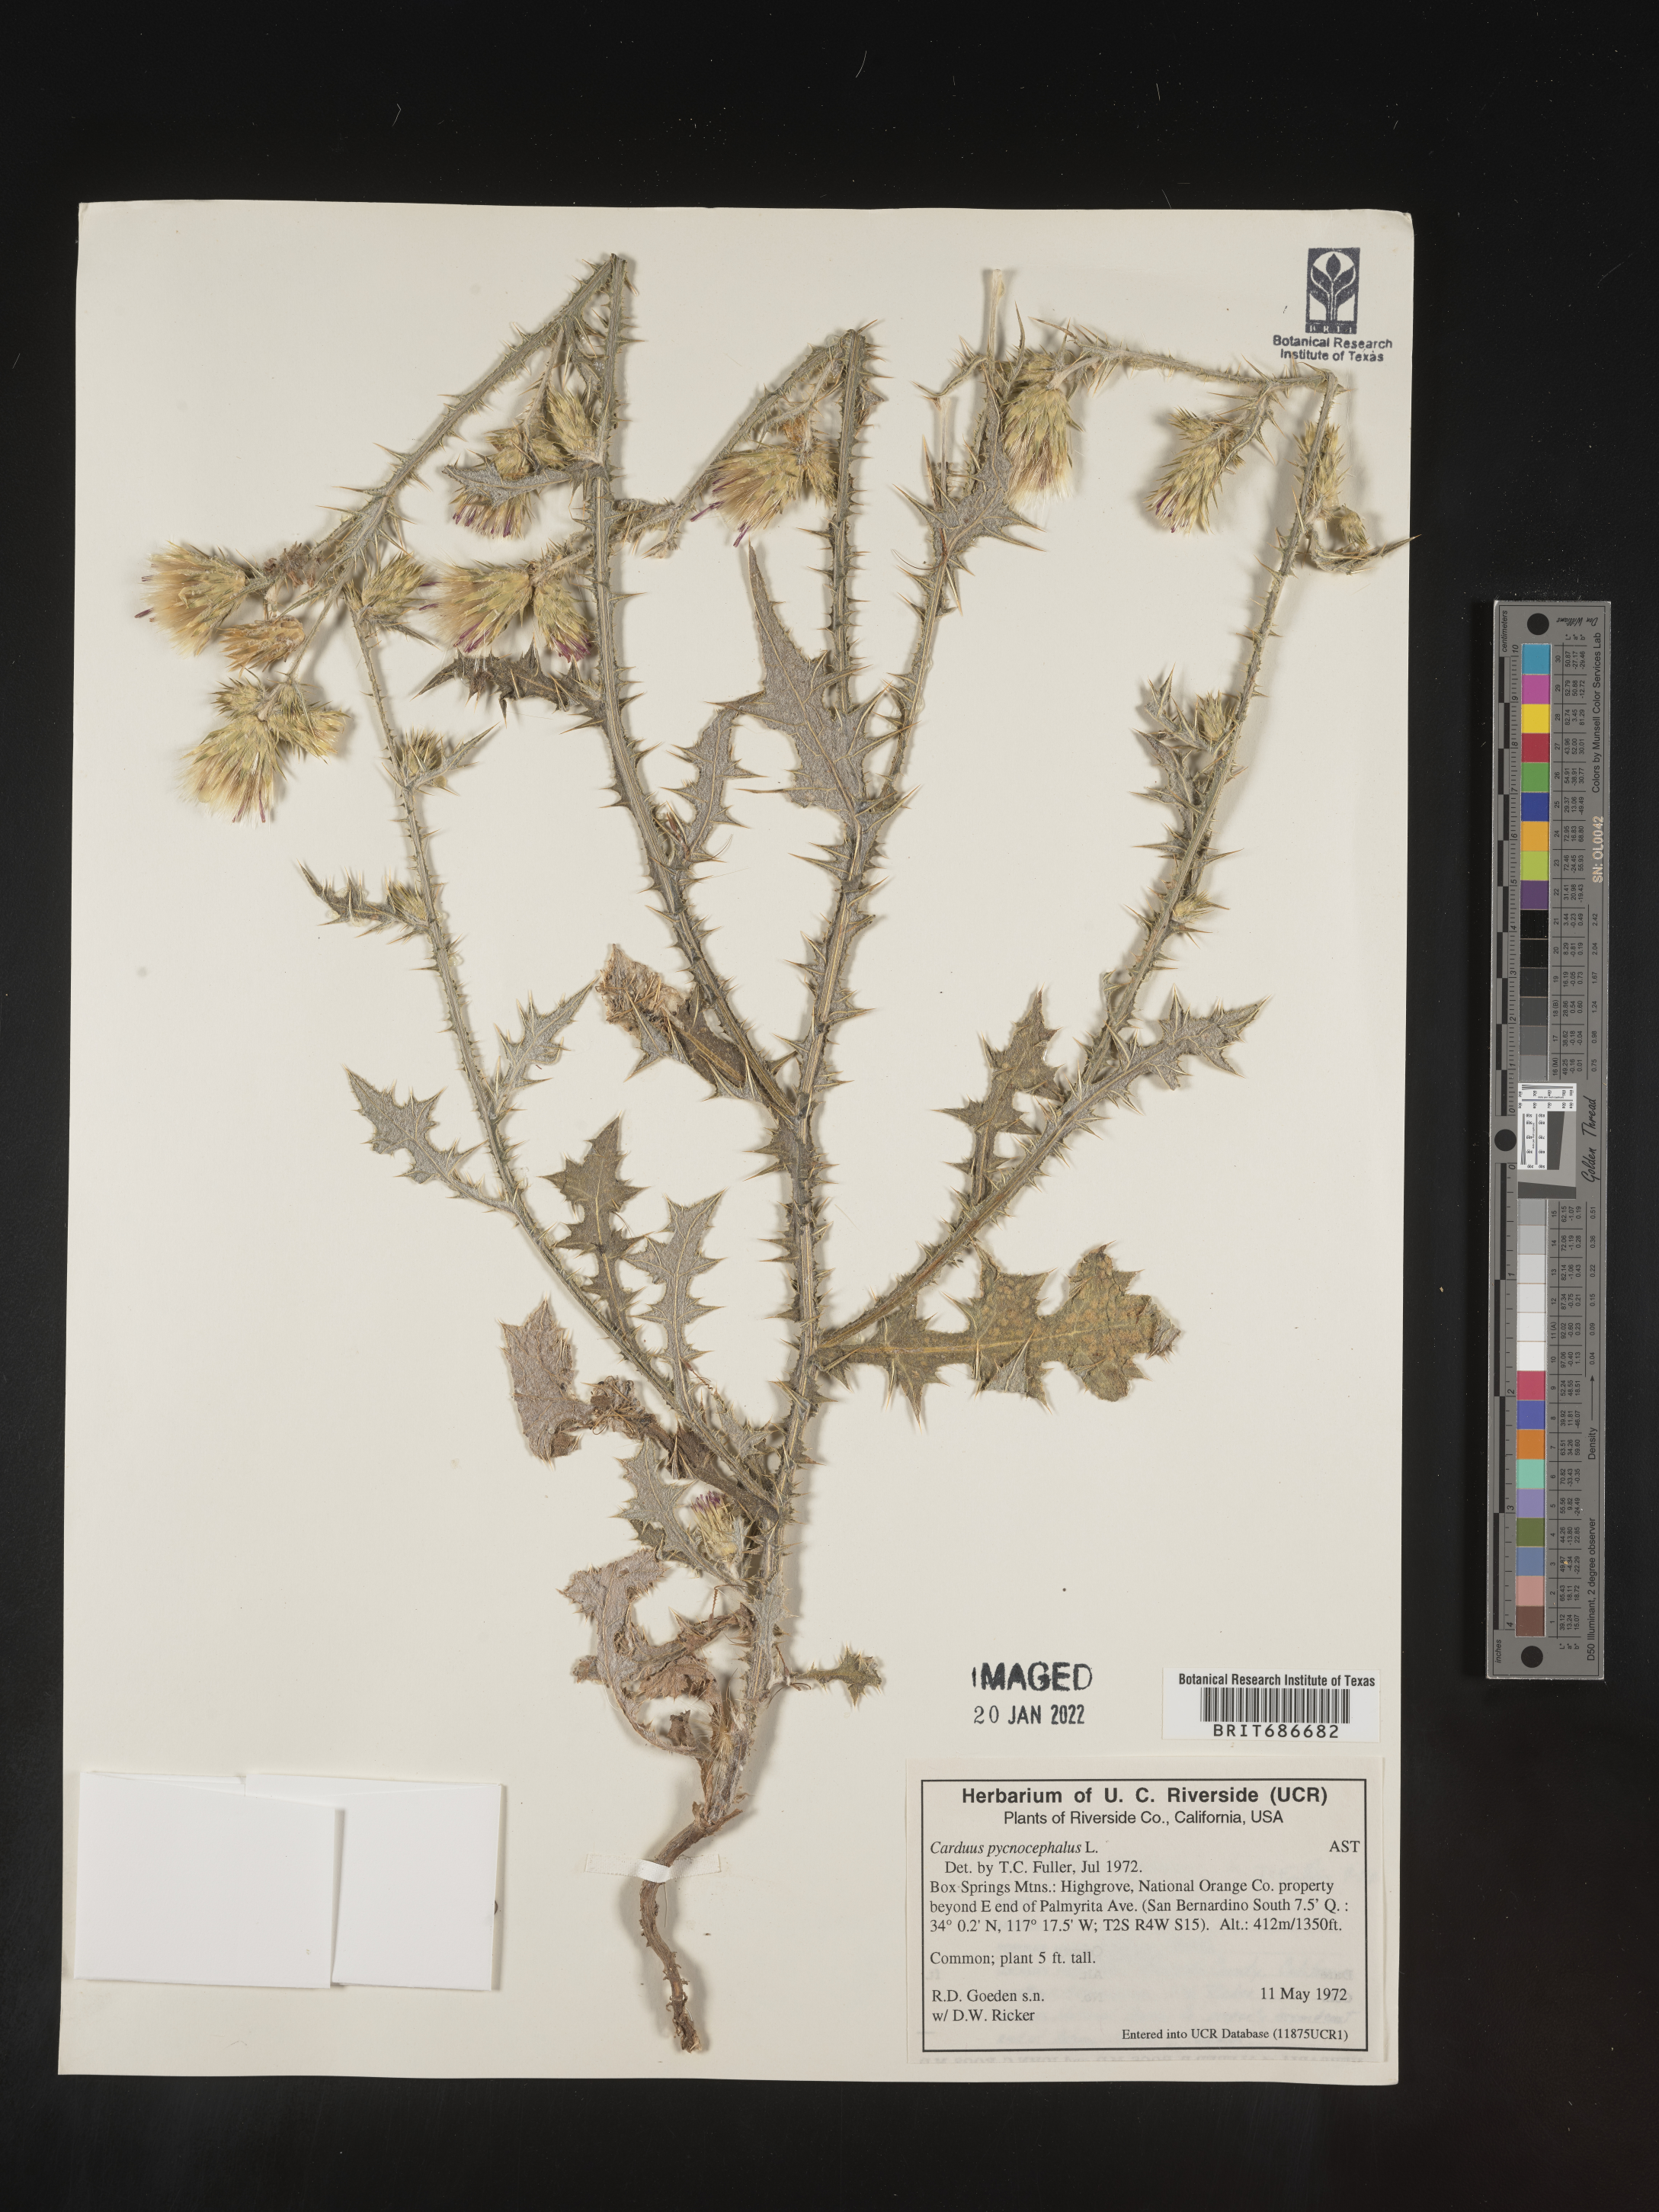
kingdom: Plantae
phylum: Tracheophyta
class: Magnoliopsida
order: Asterales
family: Asteraceae
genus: Carduus
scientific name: Carduus cephalanthus
